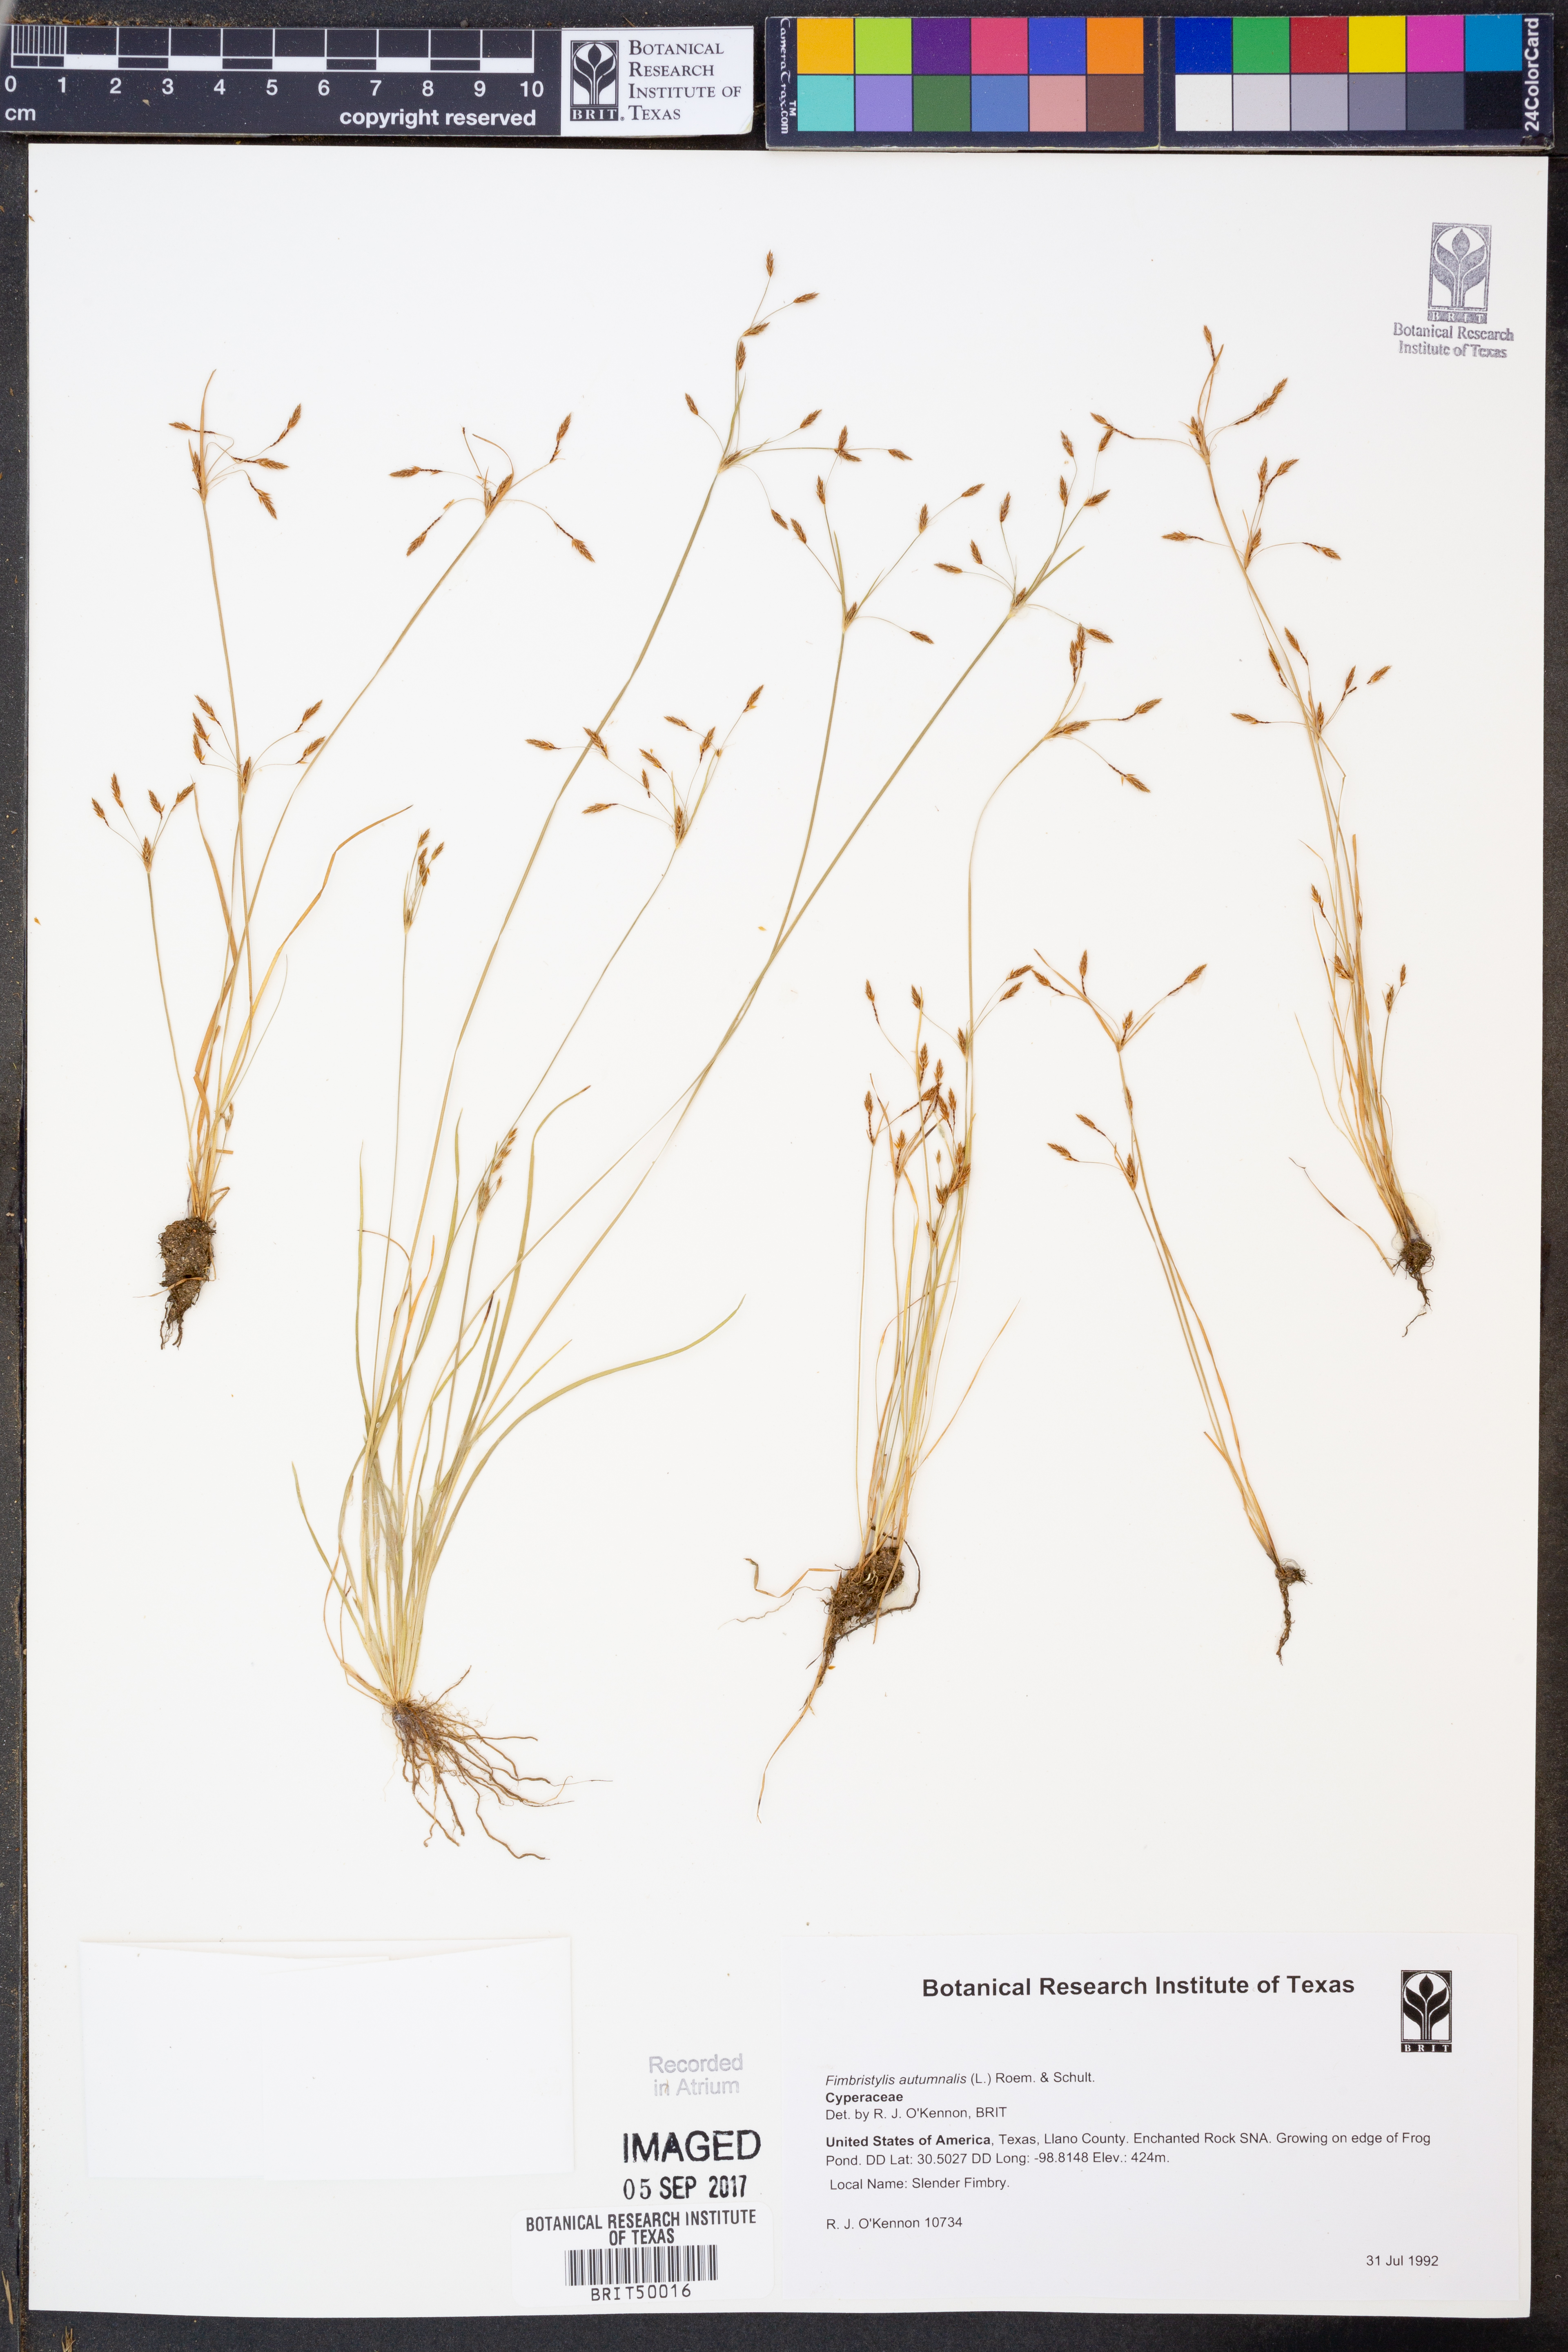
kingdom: Plantae
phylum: Tracheophyta
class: Liliopsida
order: Poales
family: Cyperaceae
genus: Fimbristylis
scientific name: Fimbristylis autumnalis
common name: Slender fimbristylis
